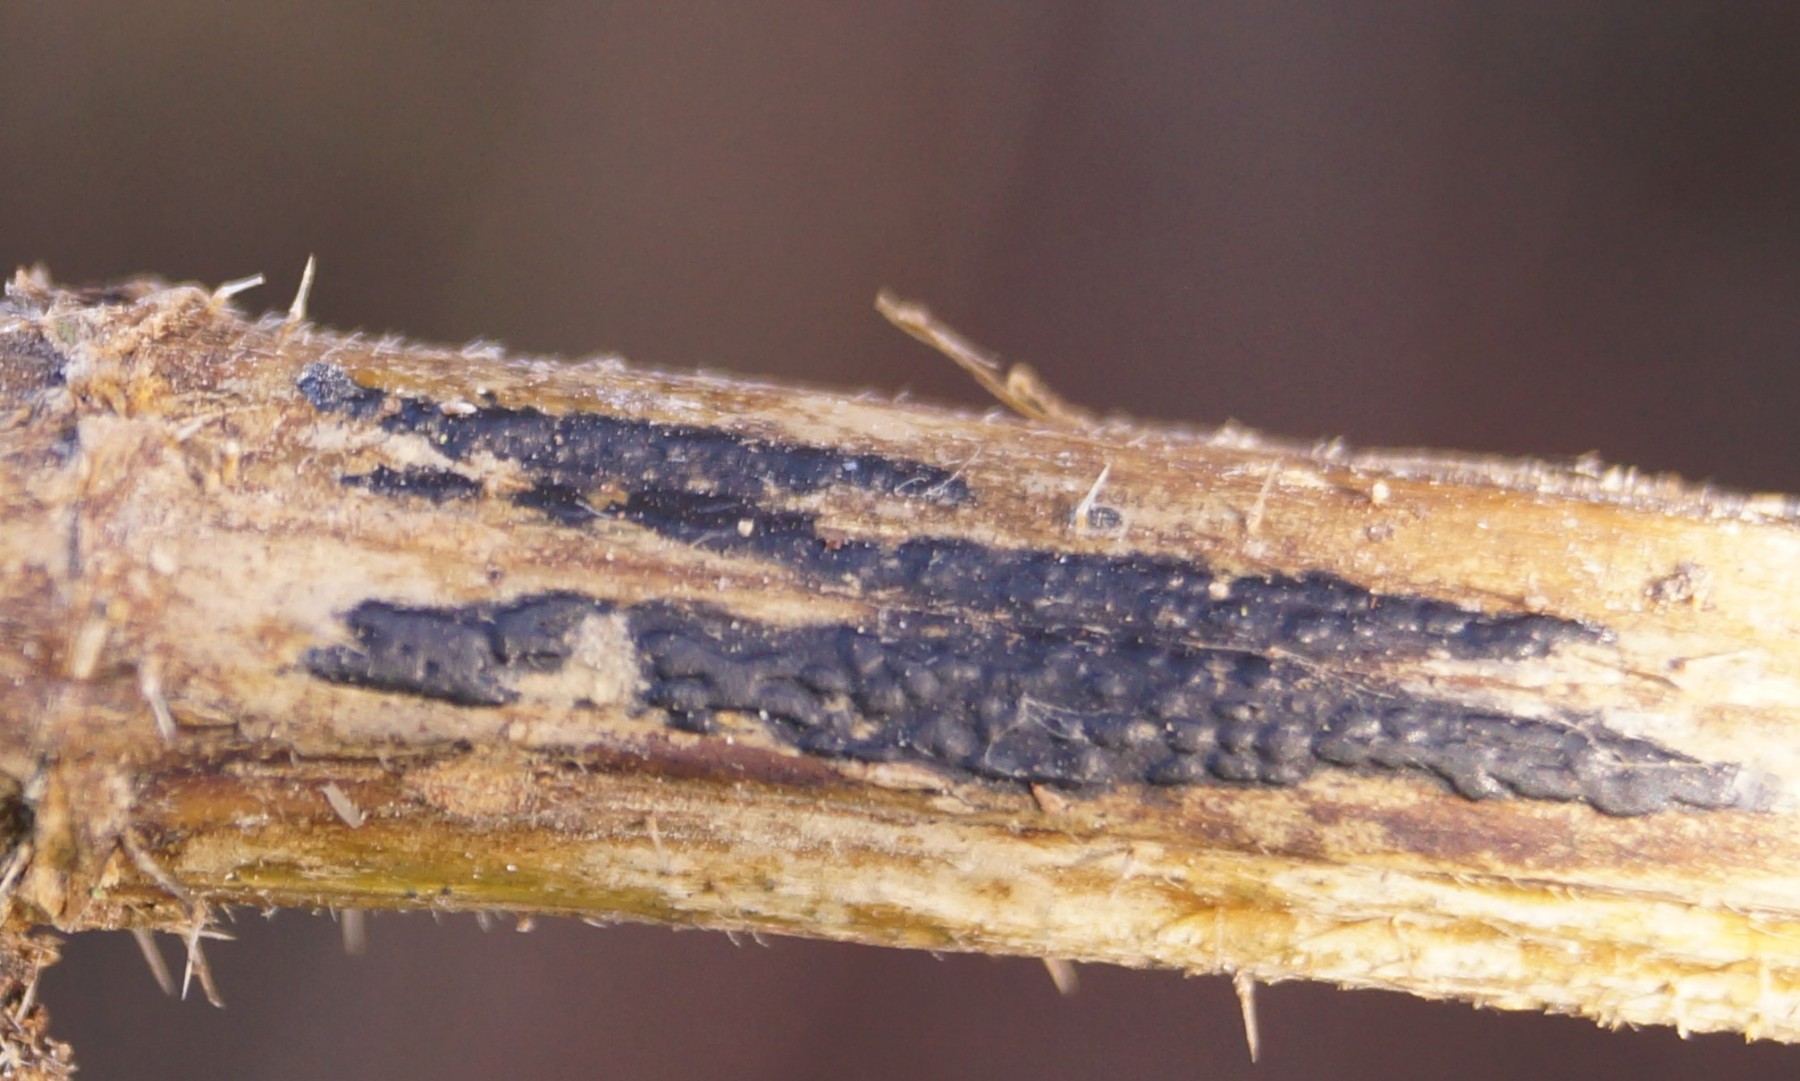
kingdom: Fungi
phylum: Ascomycota
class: Sordariomycetes
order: Diaporthales
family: Diaporthaceae
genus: Diaporthopsis
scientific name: Diaporthopsis urticae
